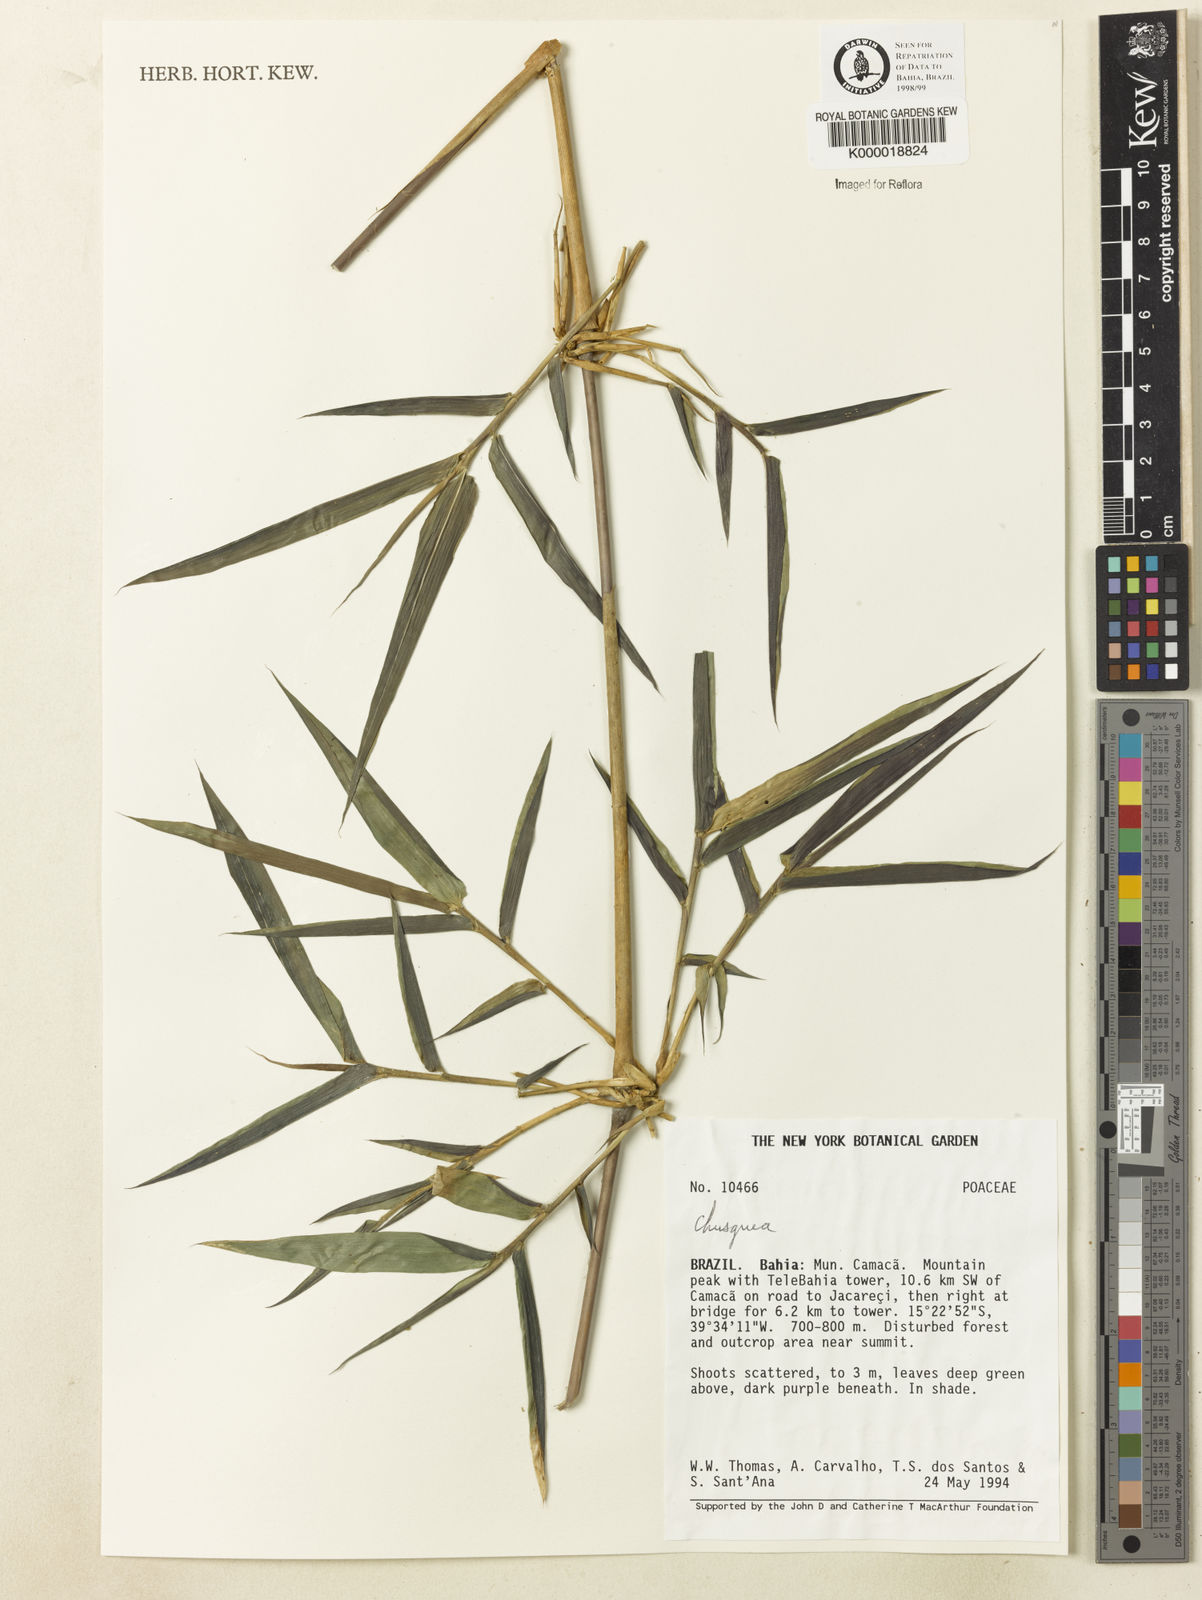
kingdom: Plantae
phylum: Tracheophyta
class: Liliopsida
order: Poales
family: Poaceae
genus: Chusquea
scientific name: Chusquea
